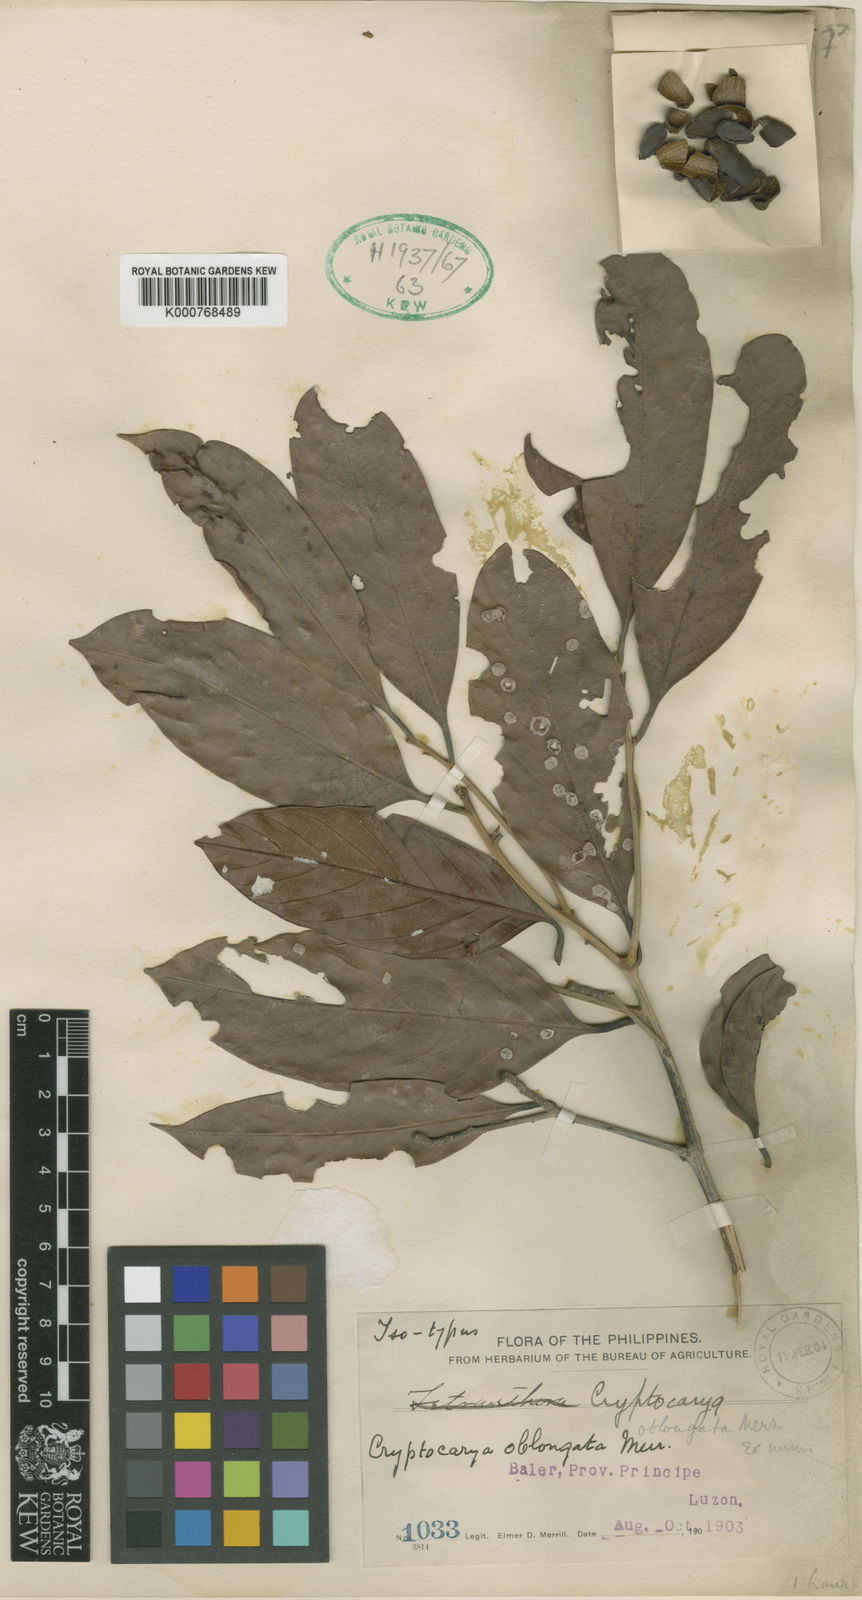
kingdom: Plantae
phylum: Tracheophyta
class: Magnoliopsida
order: Laurales
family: Lauraceae
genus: Cryptocarya
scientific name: Cryptocarya oblongata
